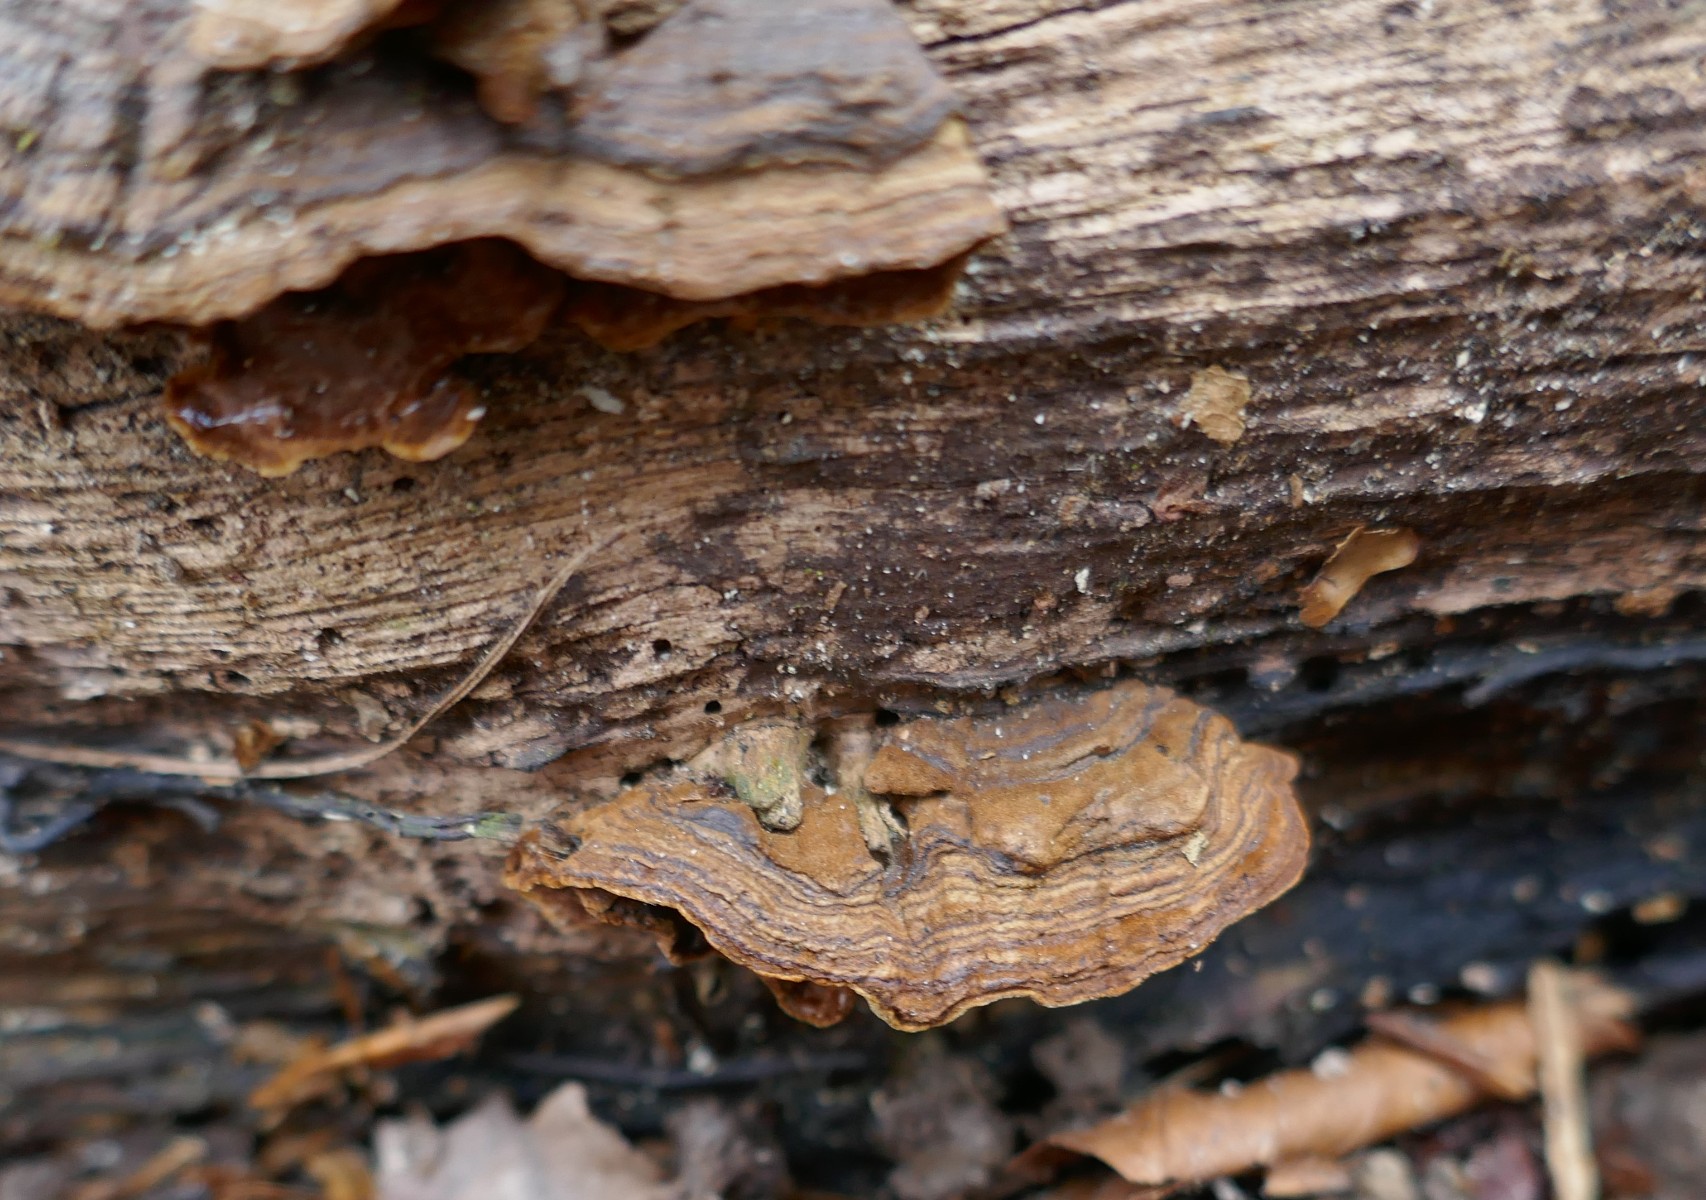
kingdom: Fungi
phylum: Basidiomycota
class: Agaricomycetes
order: Hymenochaetales
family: Hymenochaetaceae
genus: Hymenochaete
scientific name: Hymenochaete rubiginosa
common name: stiv ruslædersvamp
